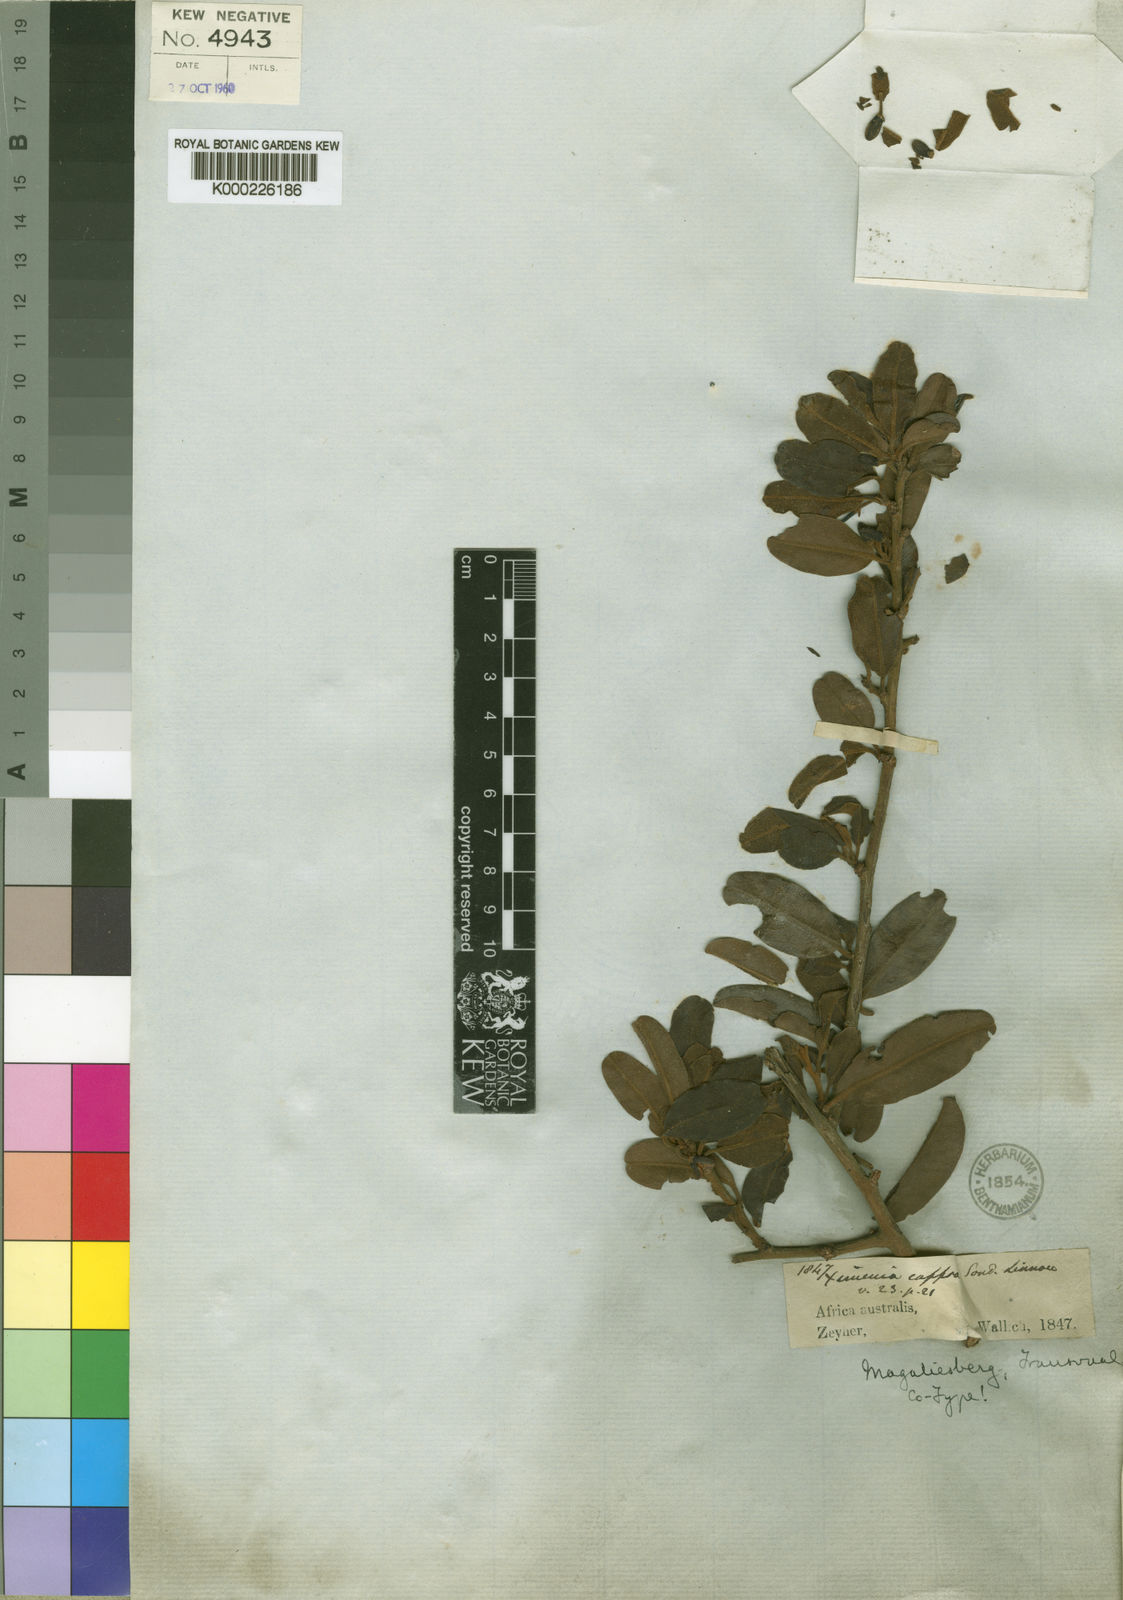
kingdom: Plantae
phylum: Tracheophyta
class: Magnoliopsida
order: Santalales
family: Ximeniaceae
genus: Ximenia
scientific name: Ximenia caffra
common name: Large sourplum
